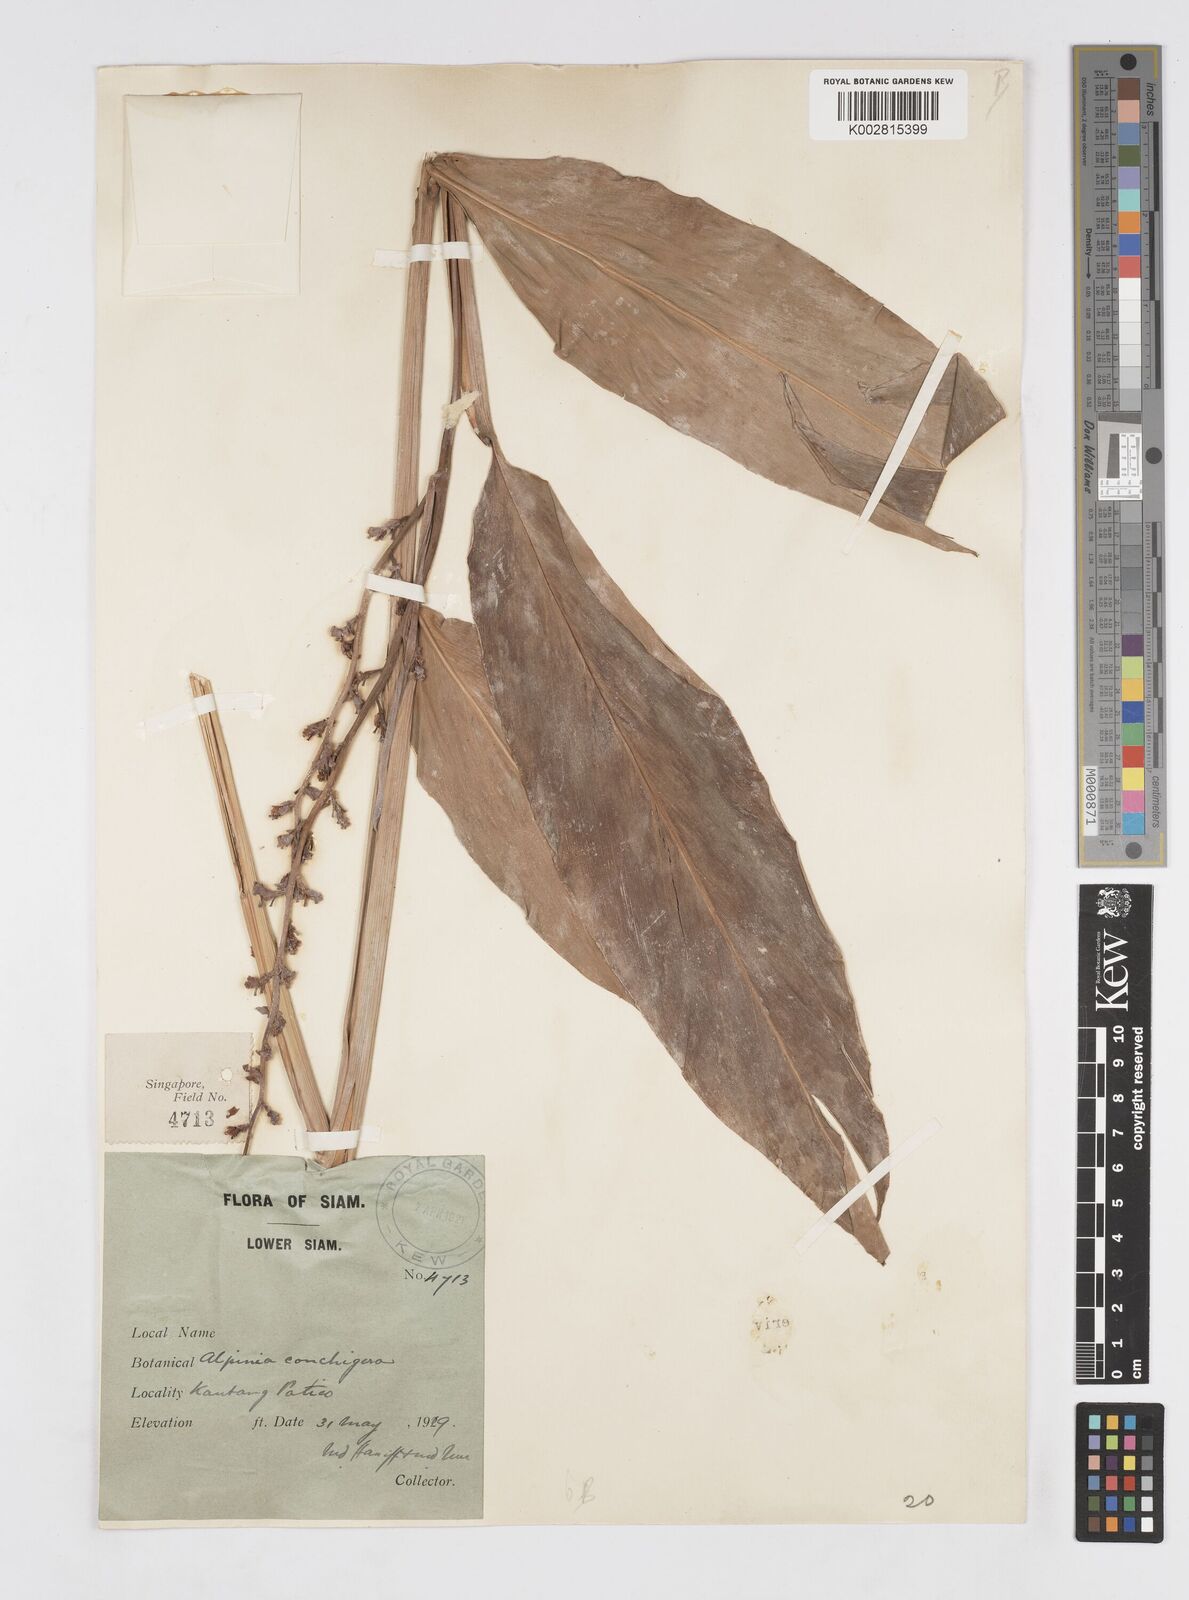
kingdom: Plantae
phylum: Tracheophyta
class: Liliopsida
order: Zingiberales
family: Zingiberaceae
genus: Alpinia
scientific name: Alpinia conchigera
